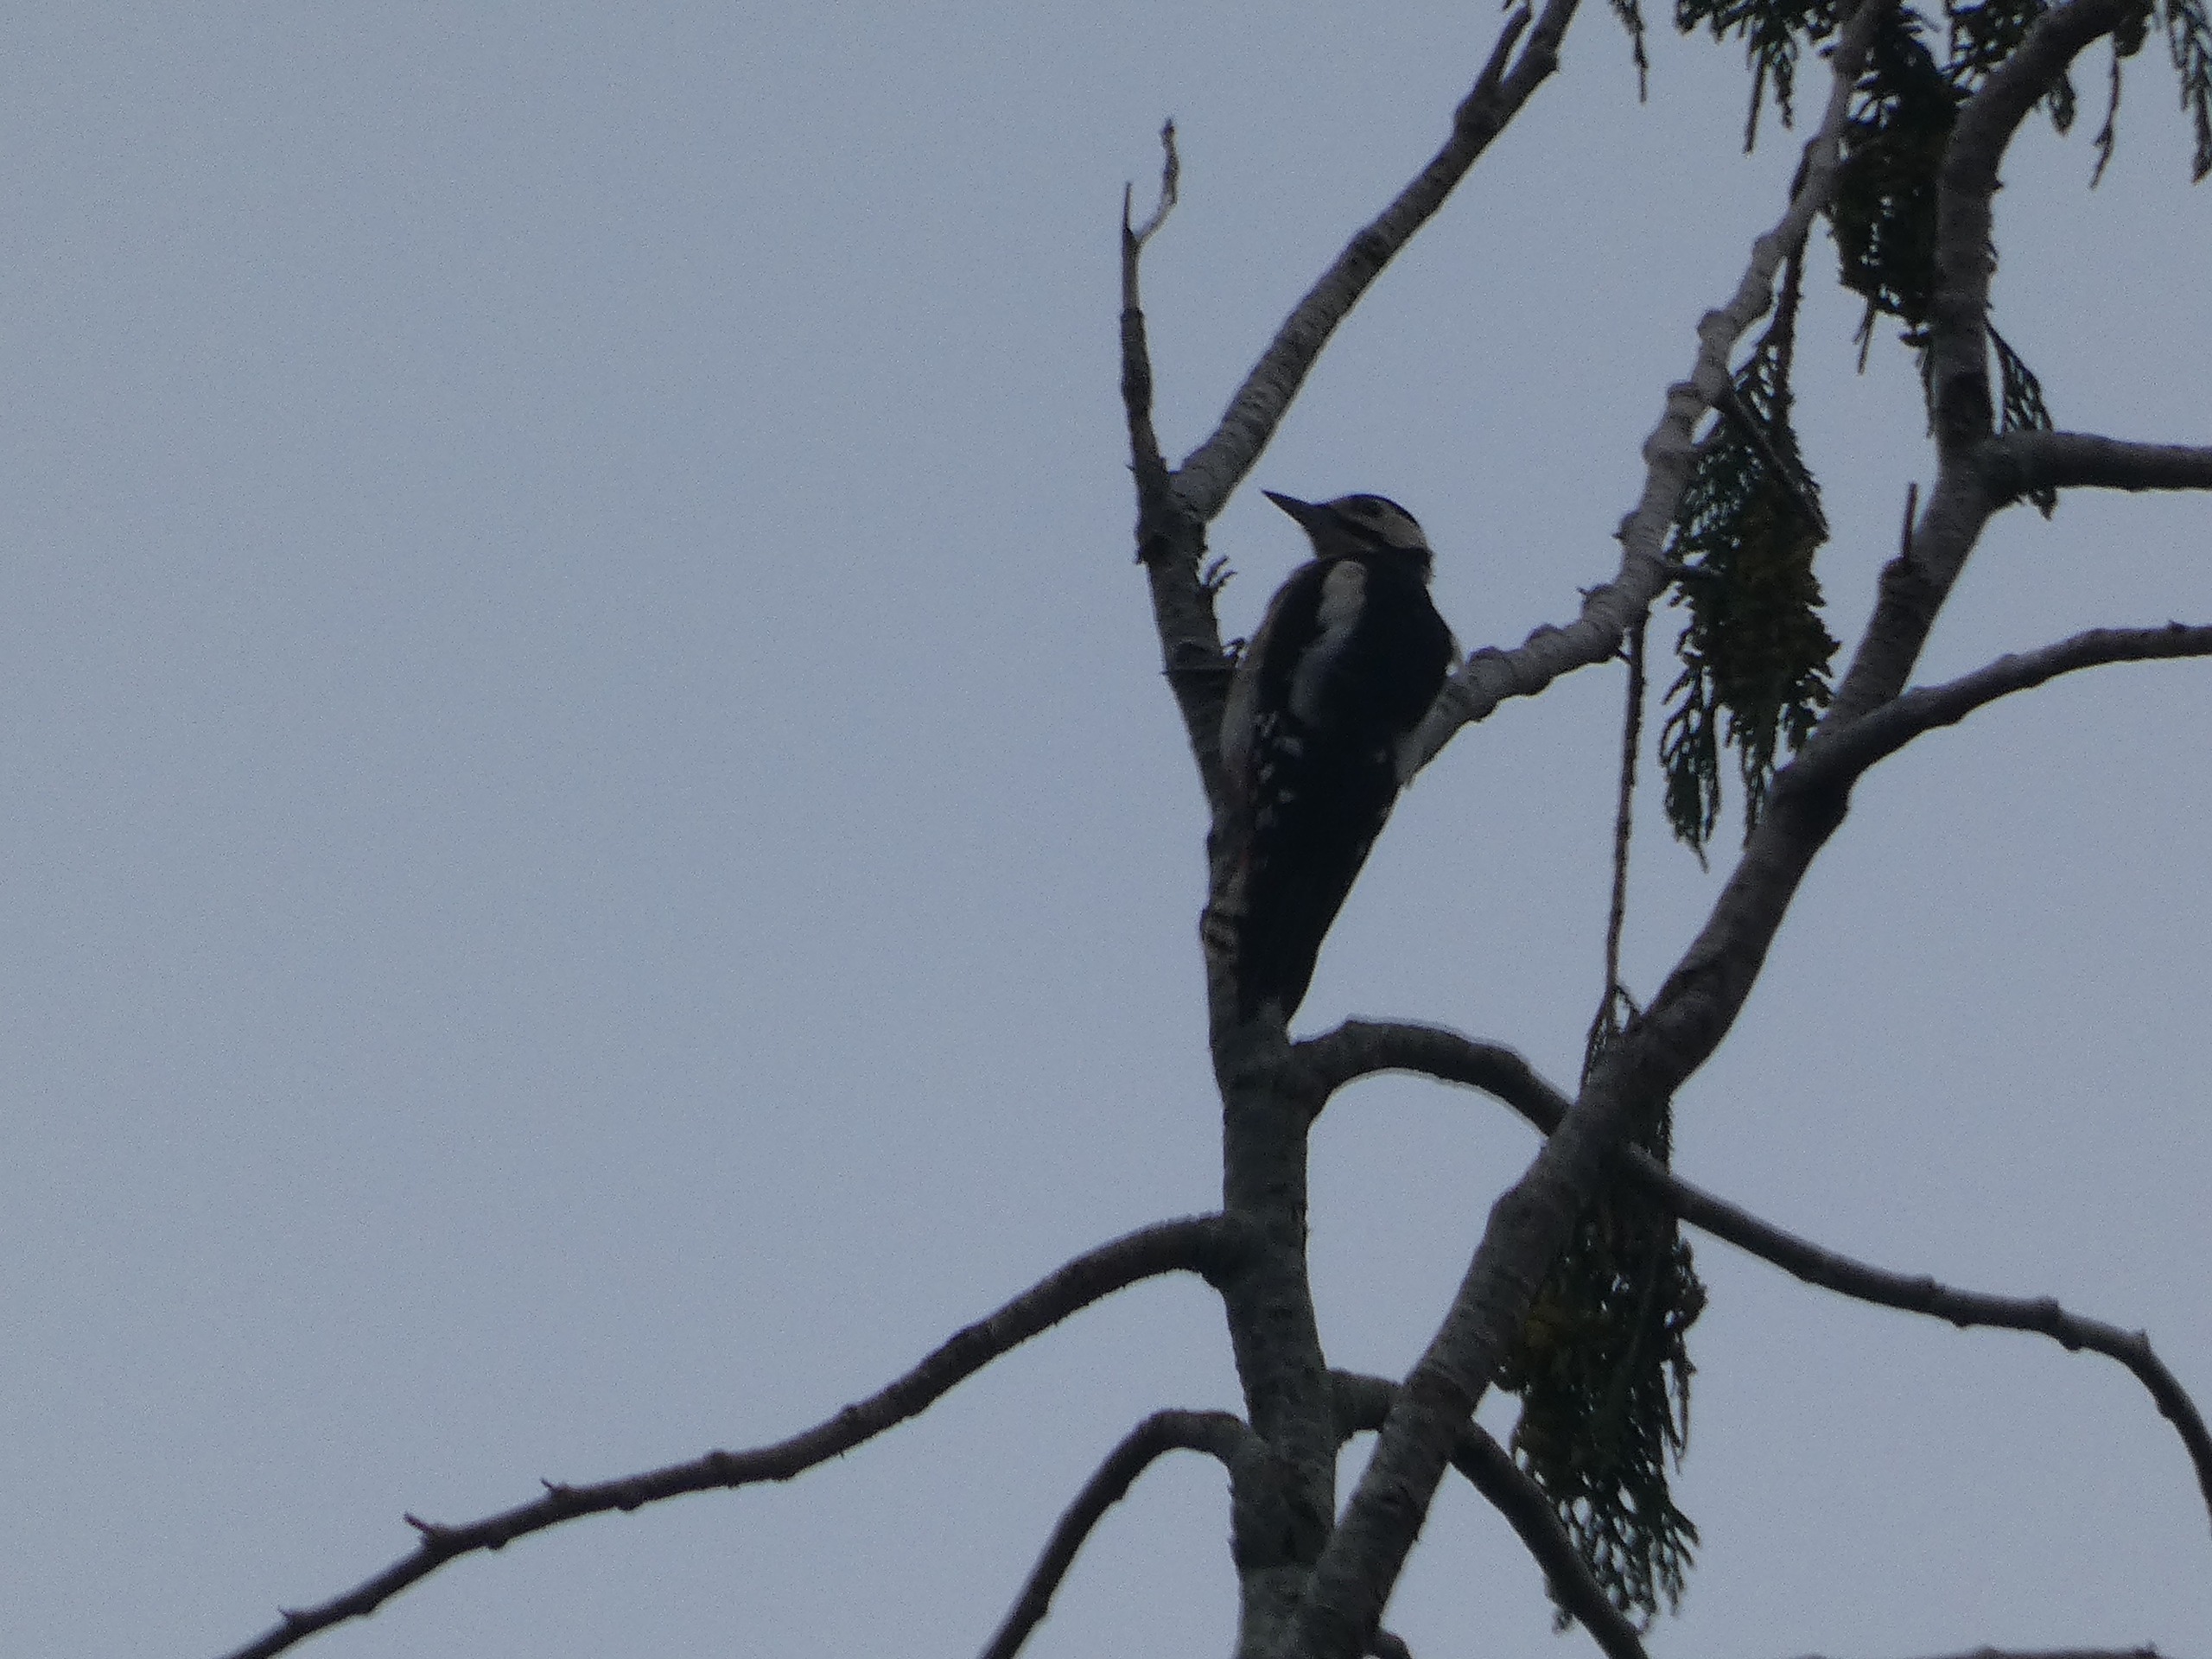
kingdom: Animalia
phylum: Chordata
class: Aves
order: Piciformes
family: Picidae
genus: Dendrocopos
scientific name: Dendrocopos major
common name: Stor flagspætte
